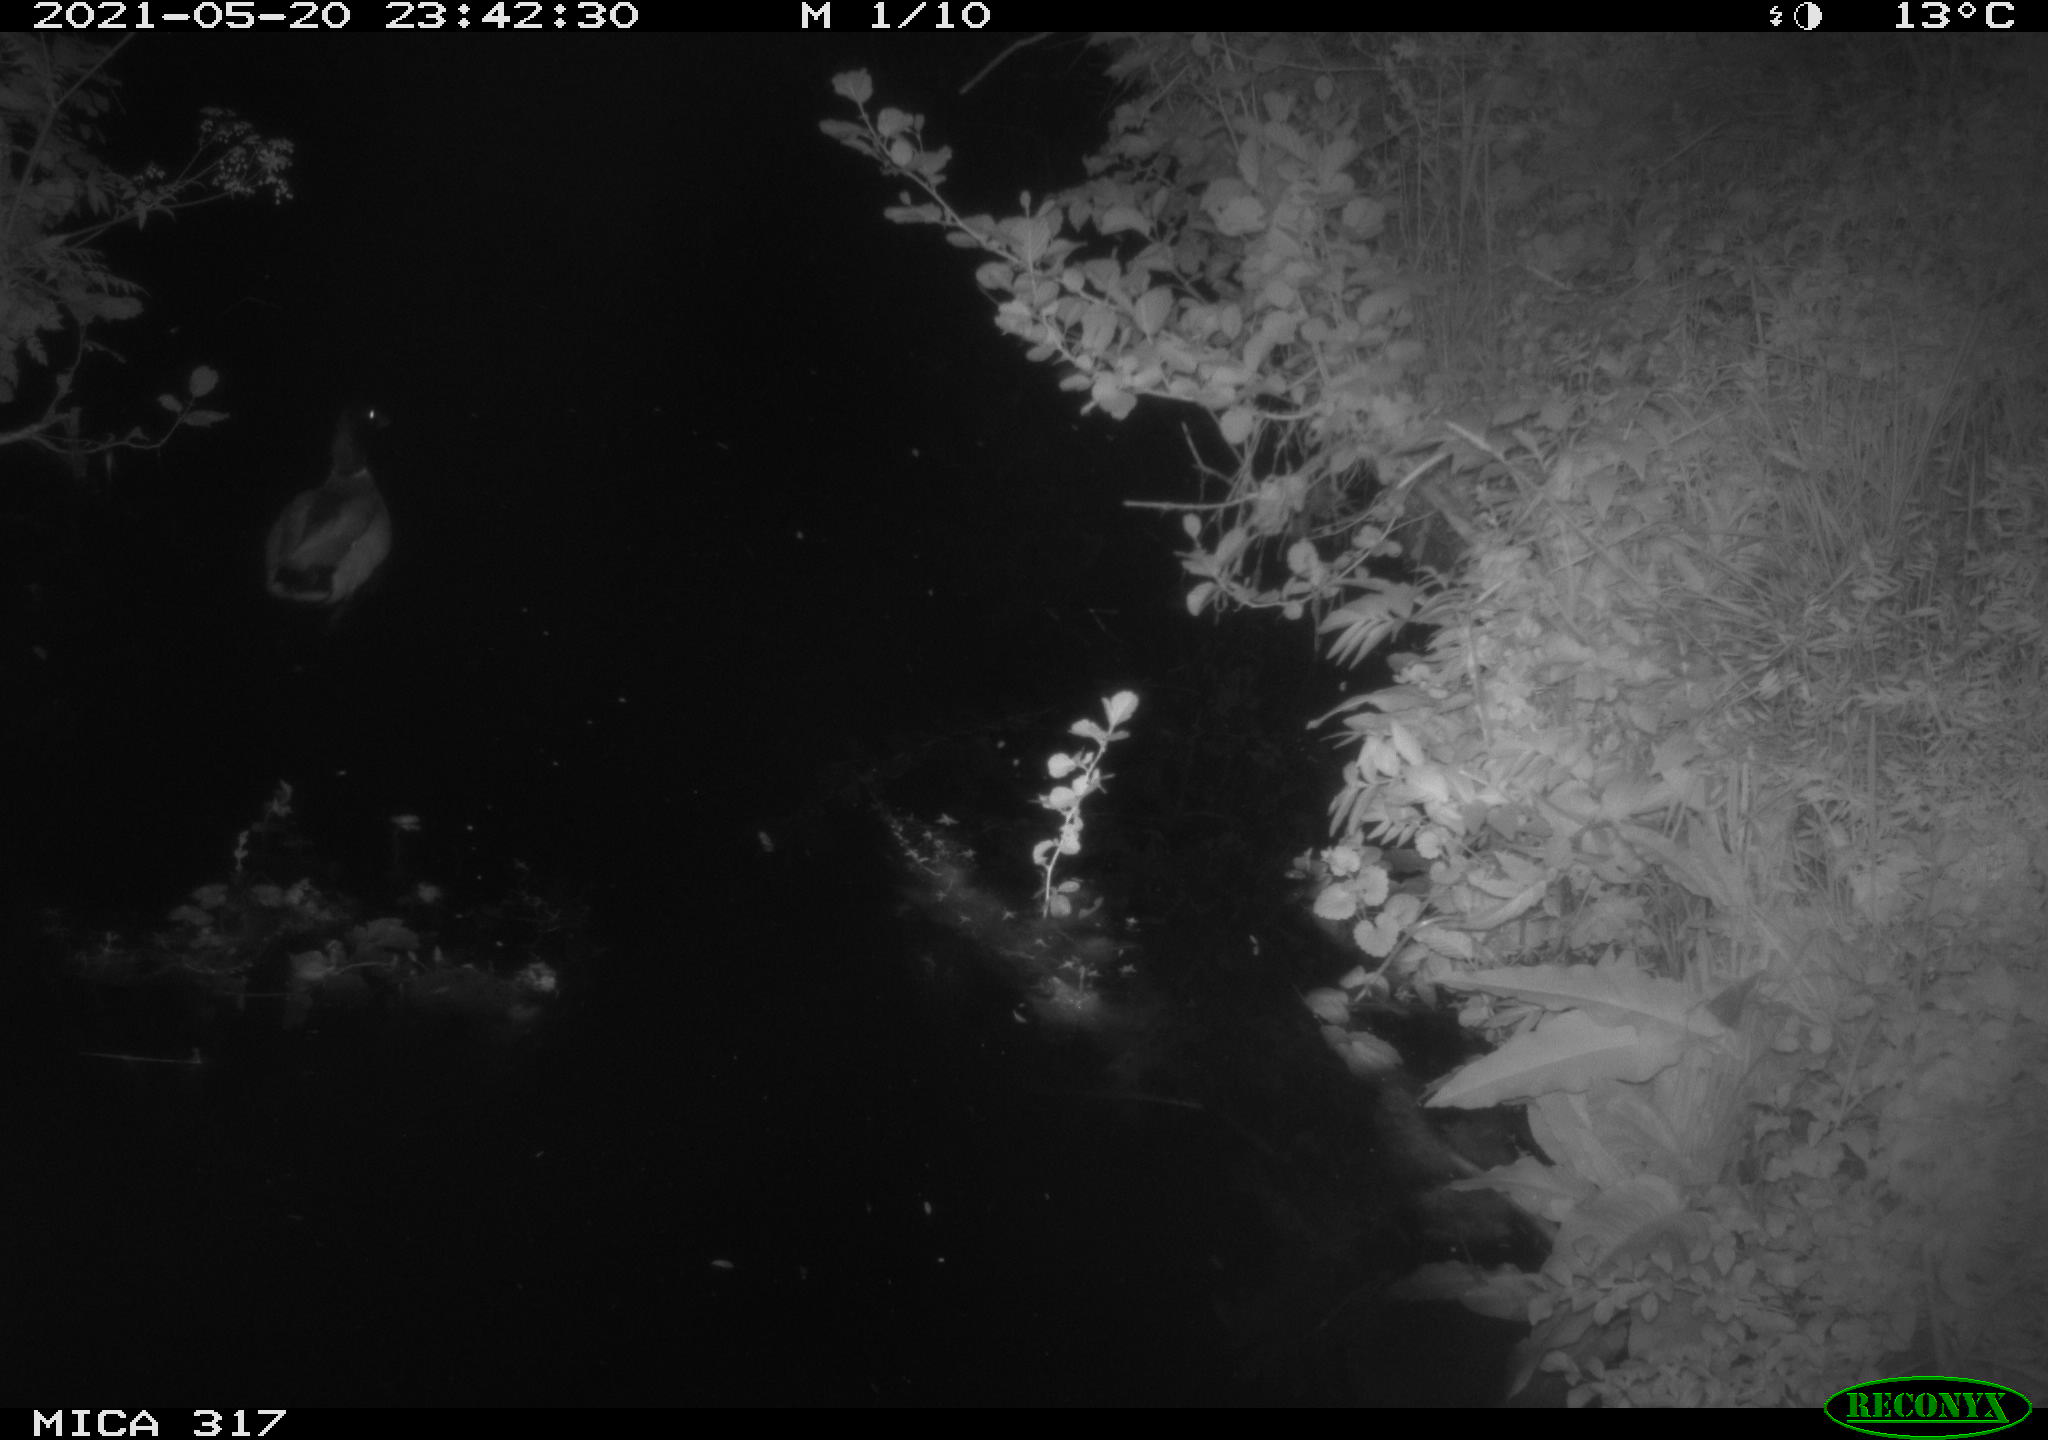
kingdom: Animalia
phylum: Chordata
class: Aves
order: Anseriformes
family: Anatidae
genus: Anas
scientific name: Anas
